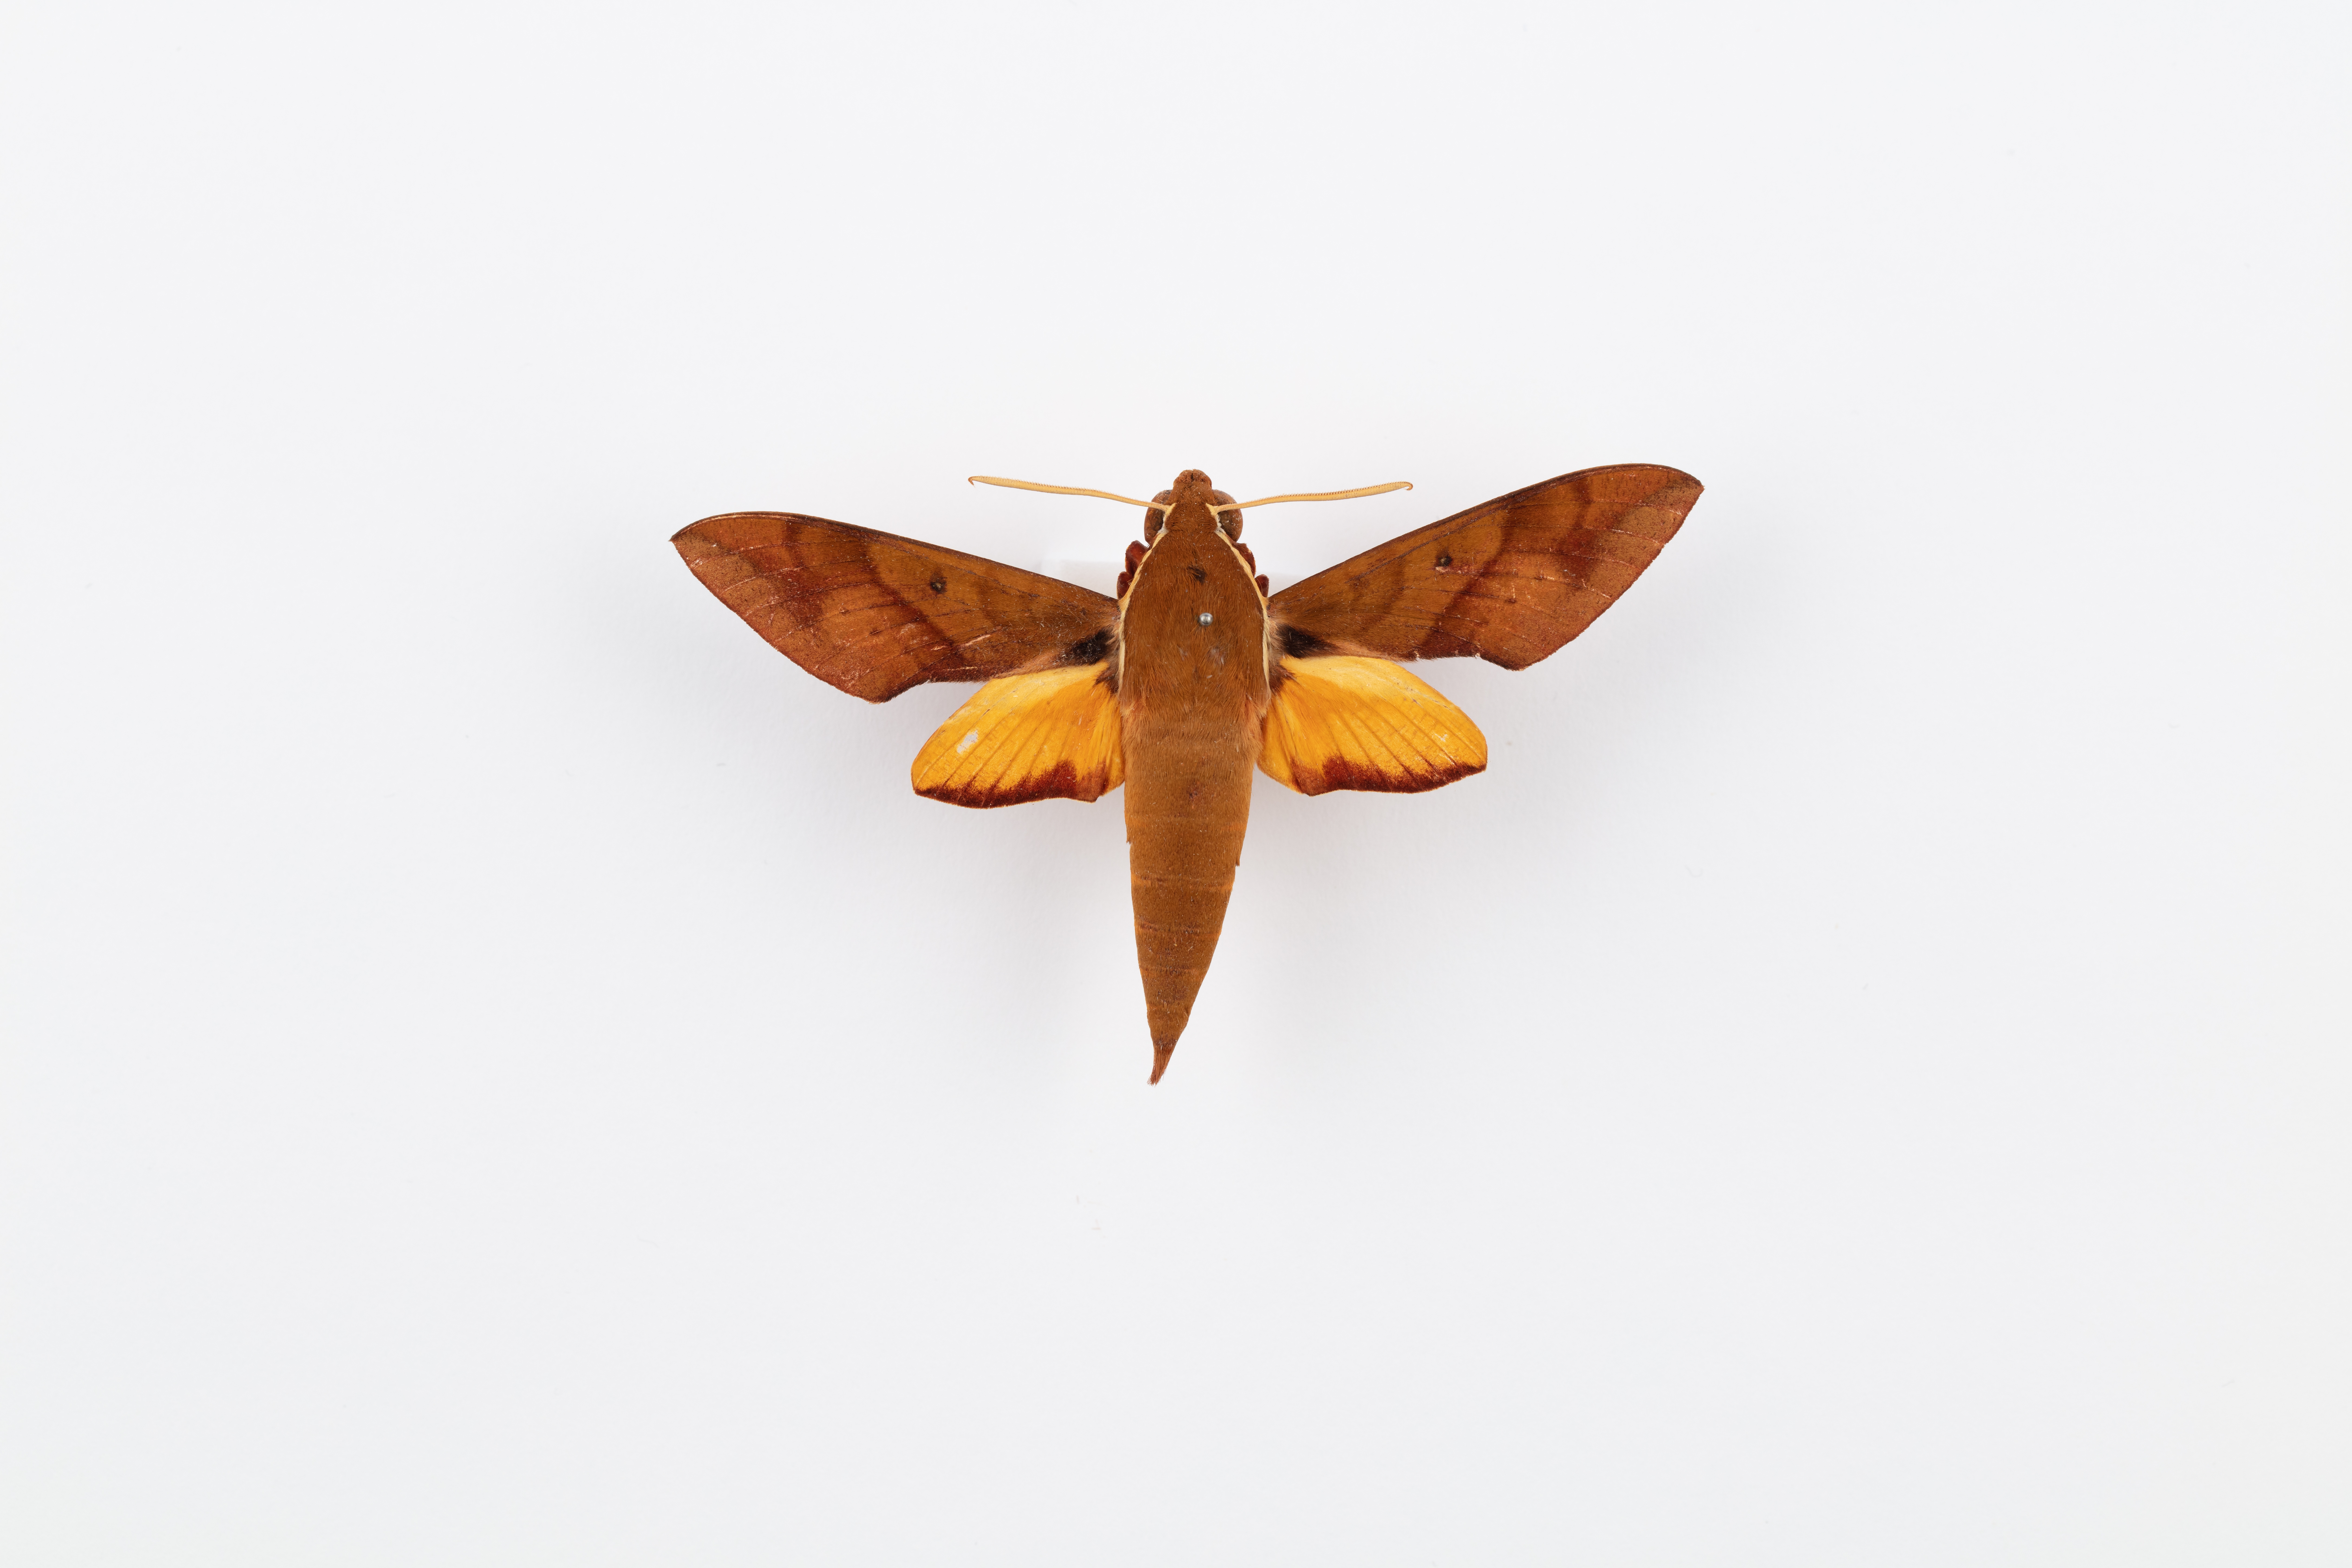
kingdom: Animalia
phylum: Arthropoda
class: Insecta
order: Lepidoptera
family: Sphingidae
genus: Gnathothlibus
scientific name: Gnathothlibus erotus
